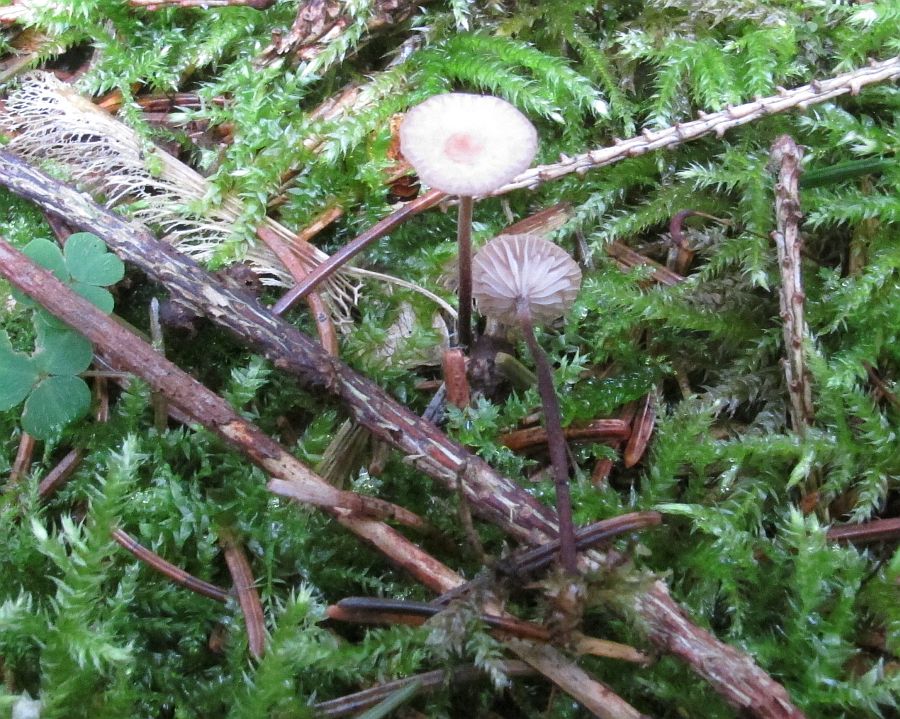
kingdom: Fungi
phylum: Basidiomycota
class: Agaricomycetes
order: Agaricales
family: Omphalotaceae
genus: Paragymnopus
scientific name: Paragymnopus perforans
